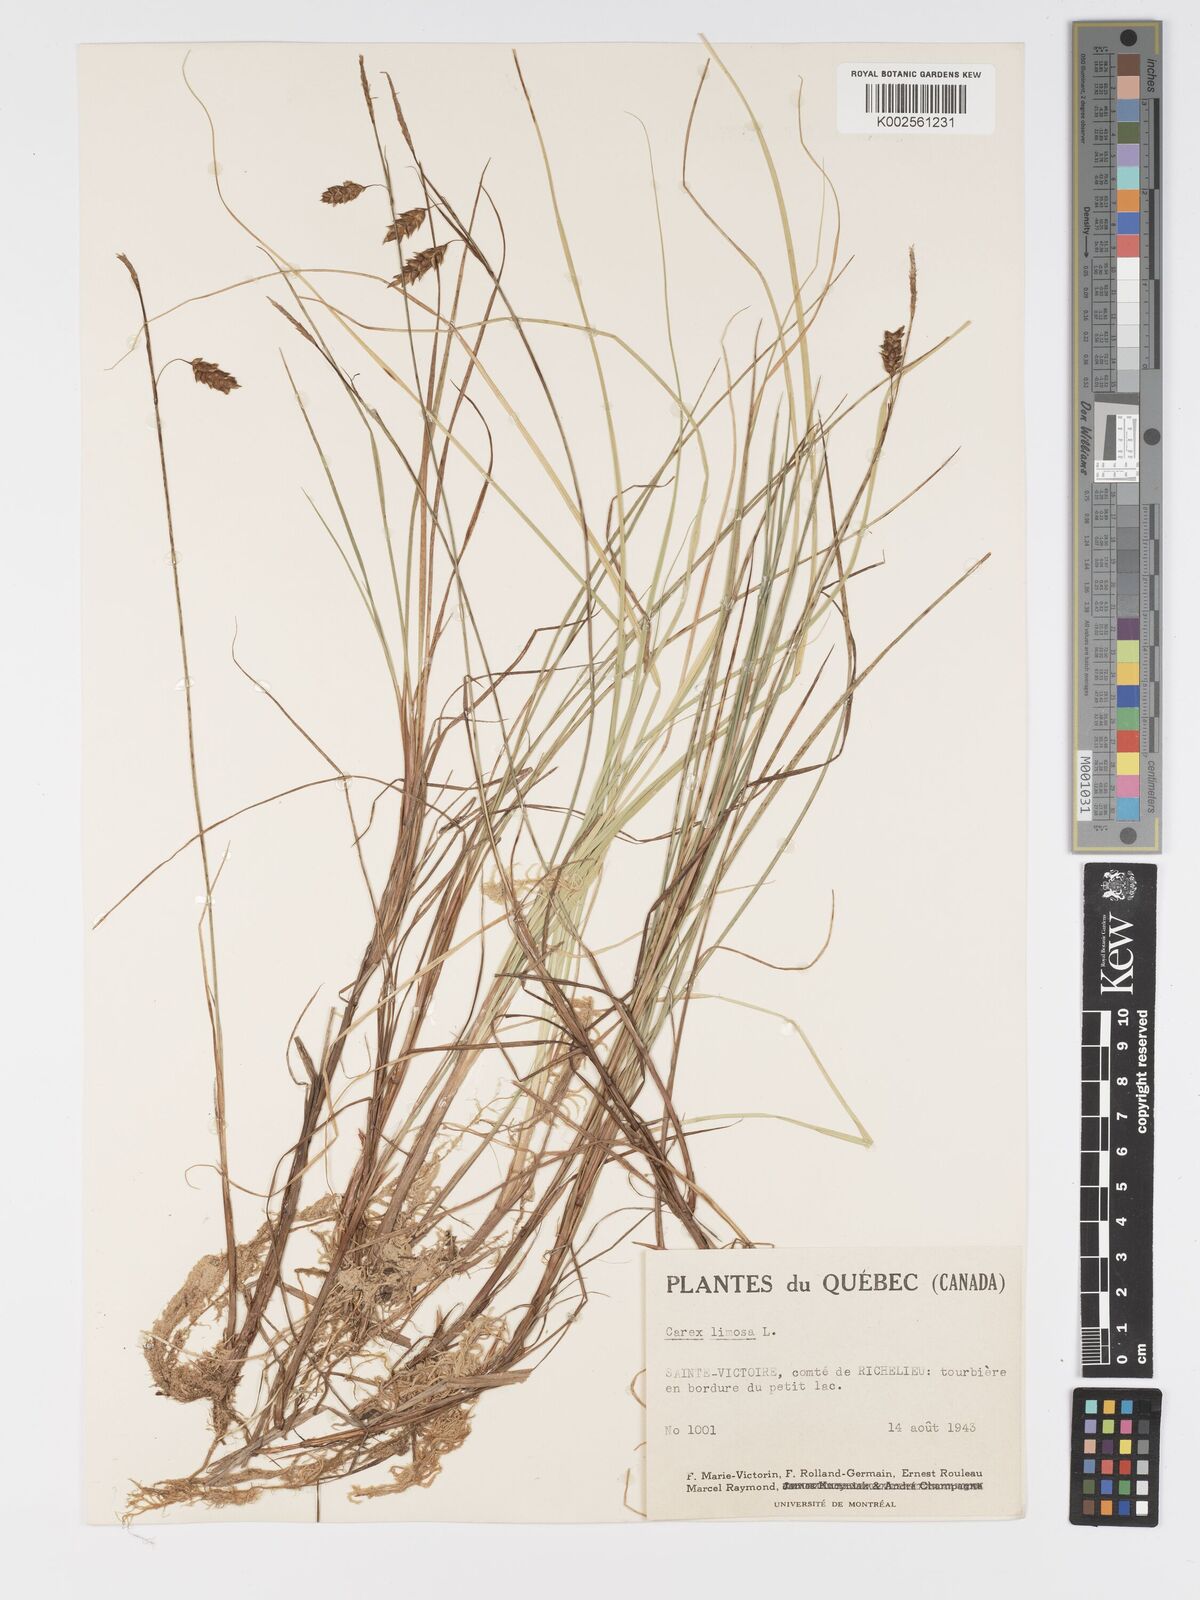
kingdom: Plantae
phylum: Tracheophyta
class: Liliopsida
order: Poales
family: Cyperaceae
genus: Carex
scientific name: Carex limosa
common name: Bog sedge
